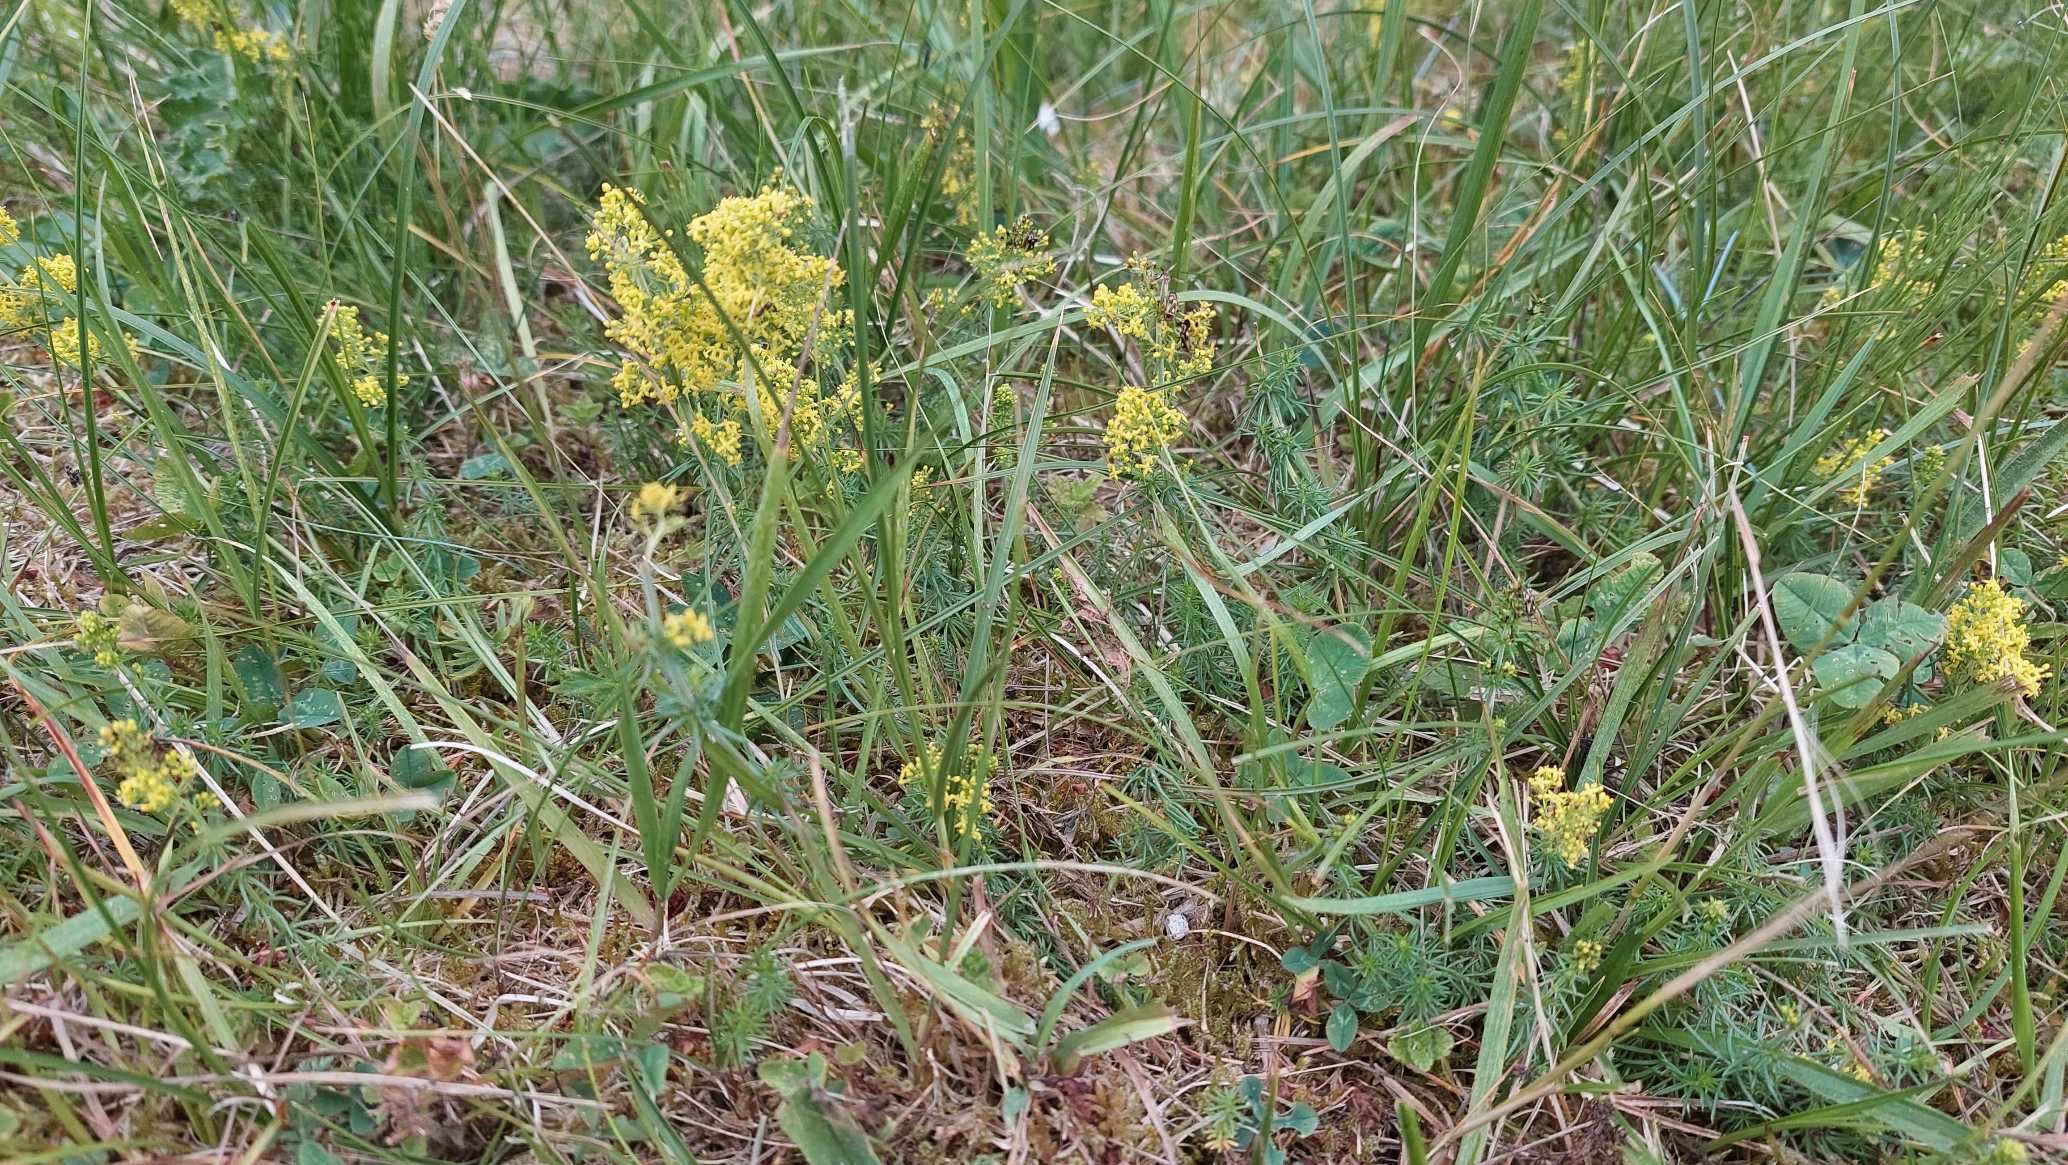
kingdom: Plantae
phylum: Tracheophyta
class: Magnoliopsida
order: Gentianales
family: Rubiaceae
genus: Galium
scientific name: Galium verum
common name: Gul snerre
